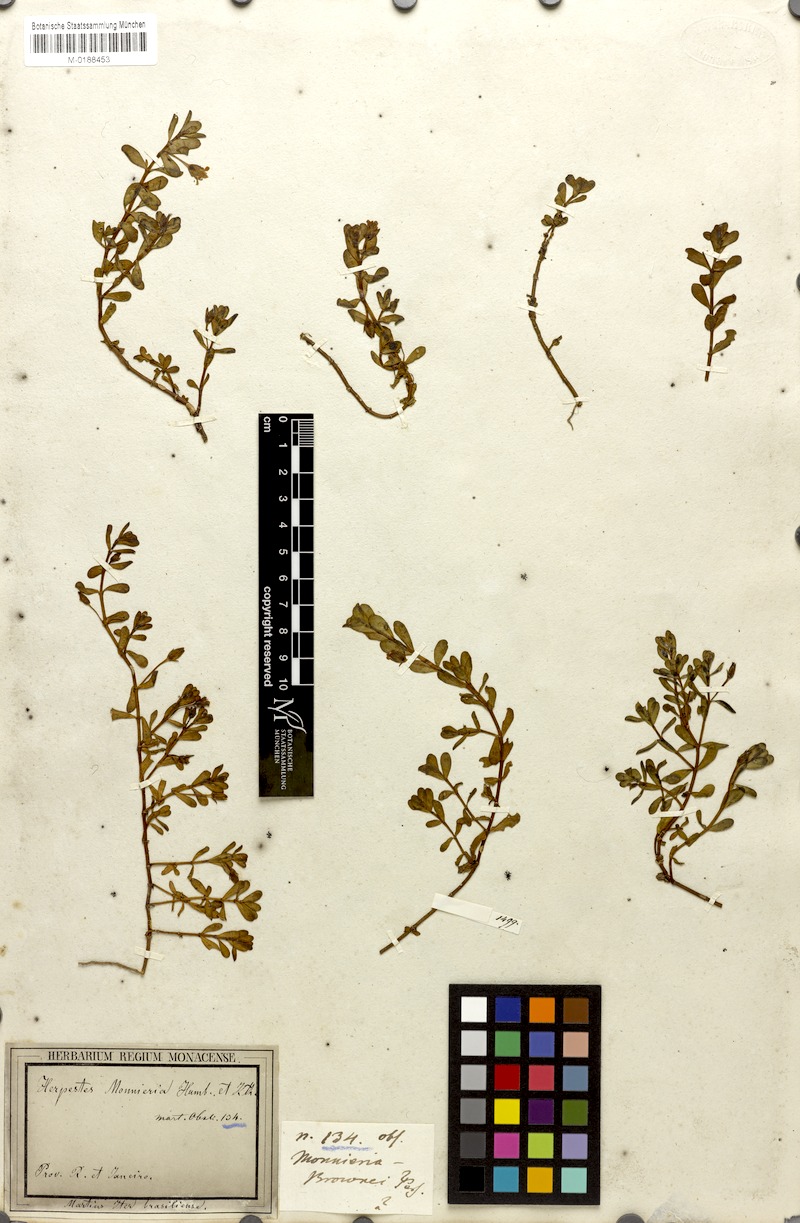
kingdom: Plantae
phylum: Tracheophyta
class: Magnoliopsida
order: Lamiales
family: Plantaginaceae
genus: Bacopa
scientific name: Bacopa monnieri
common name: Indian-pennywort
